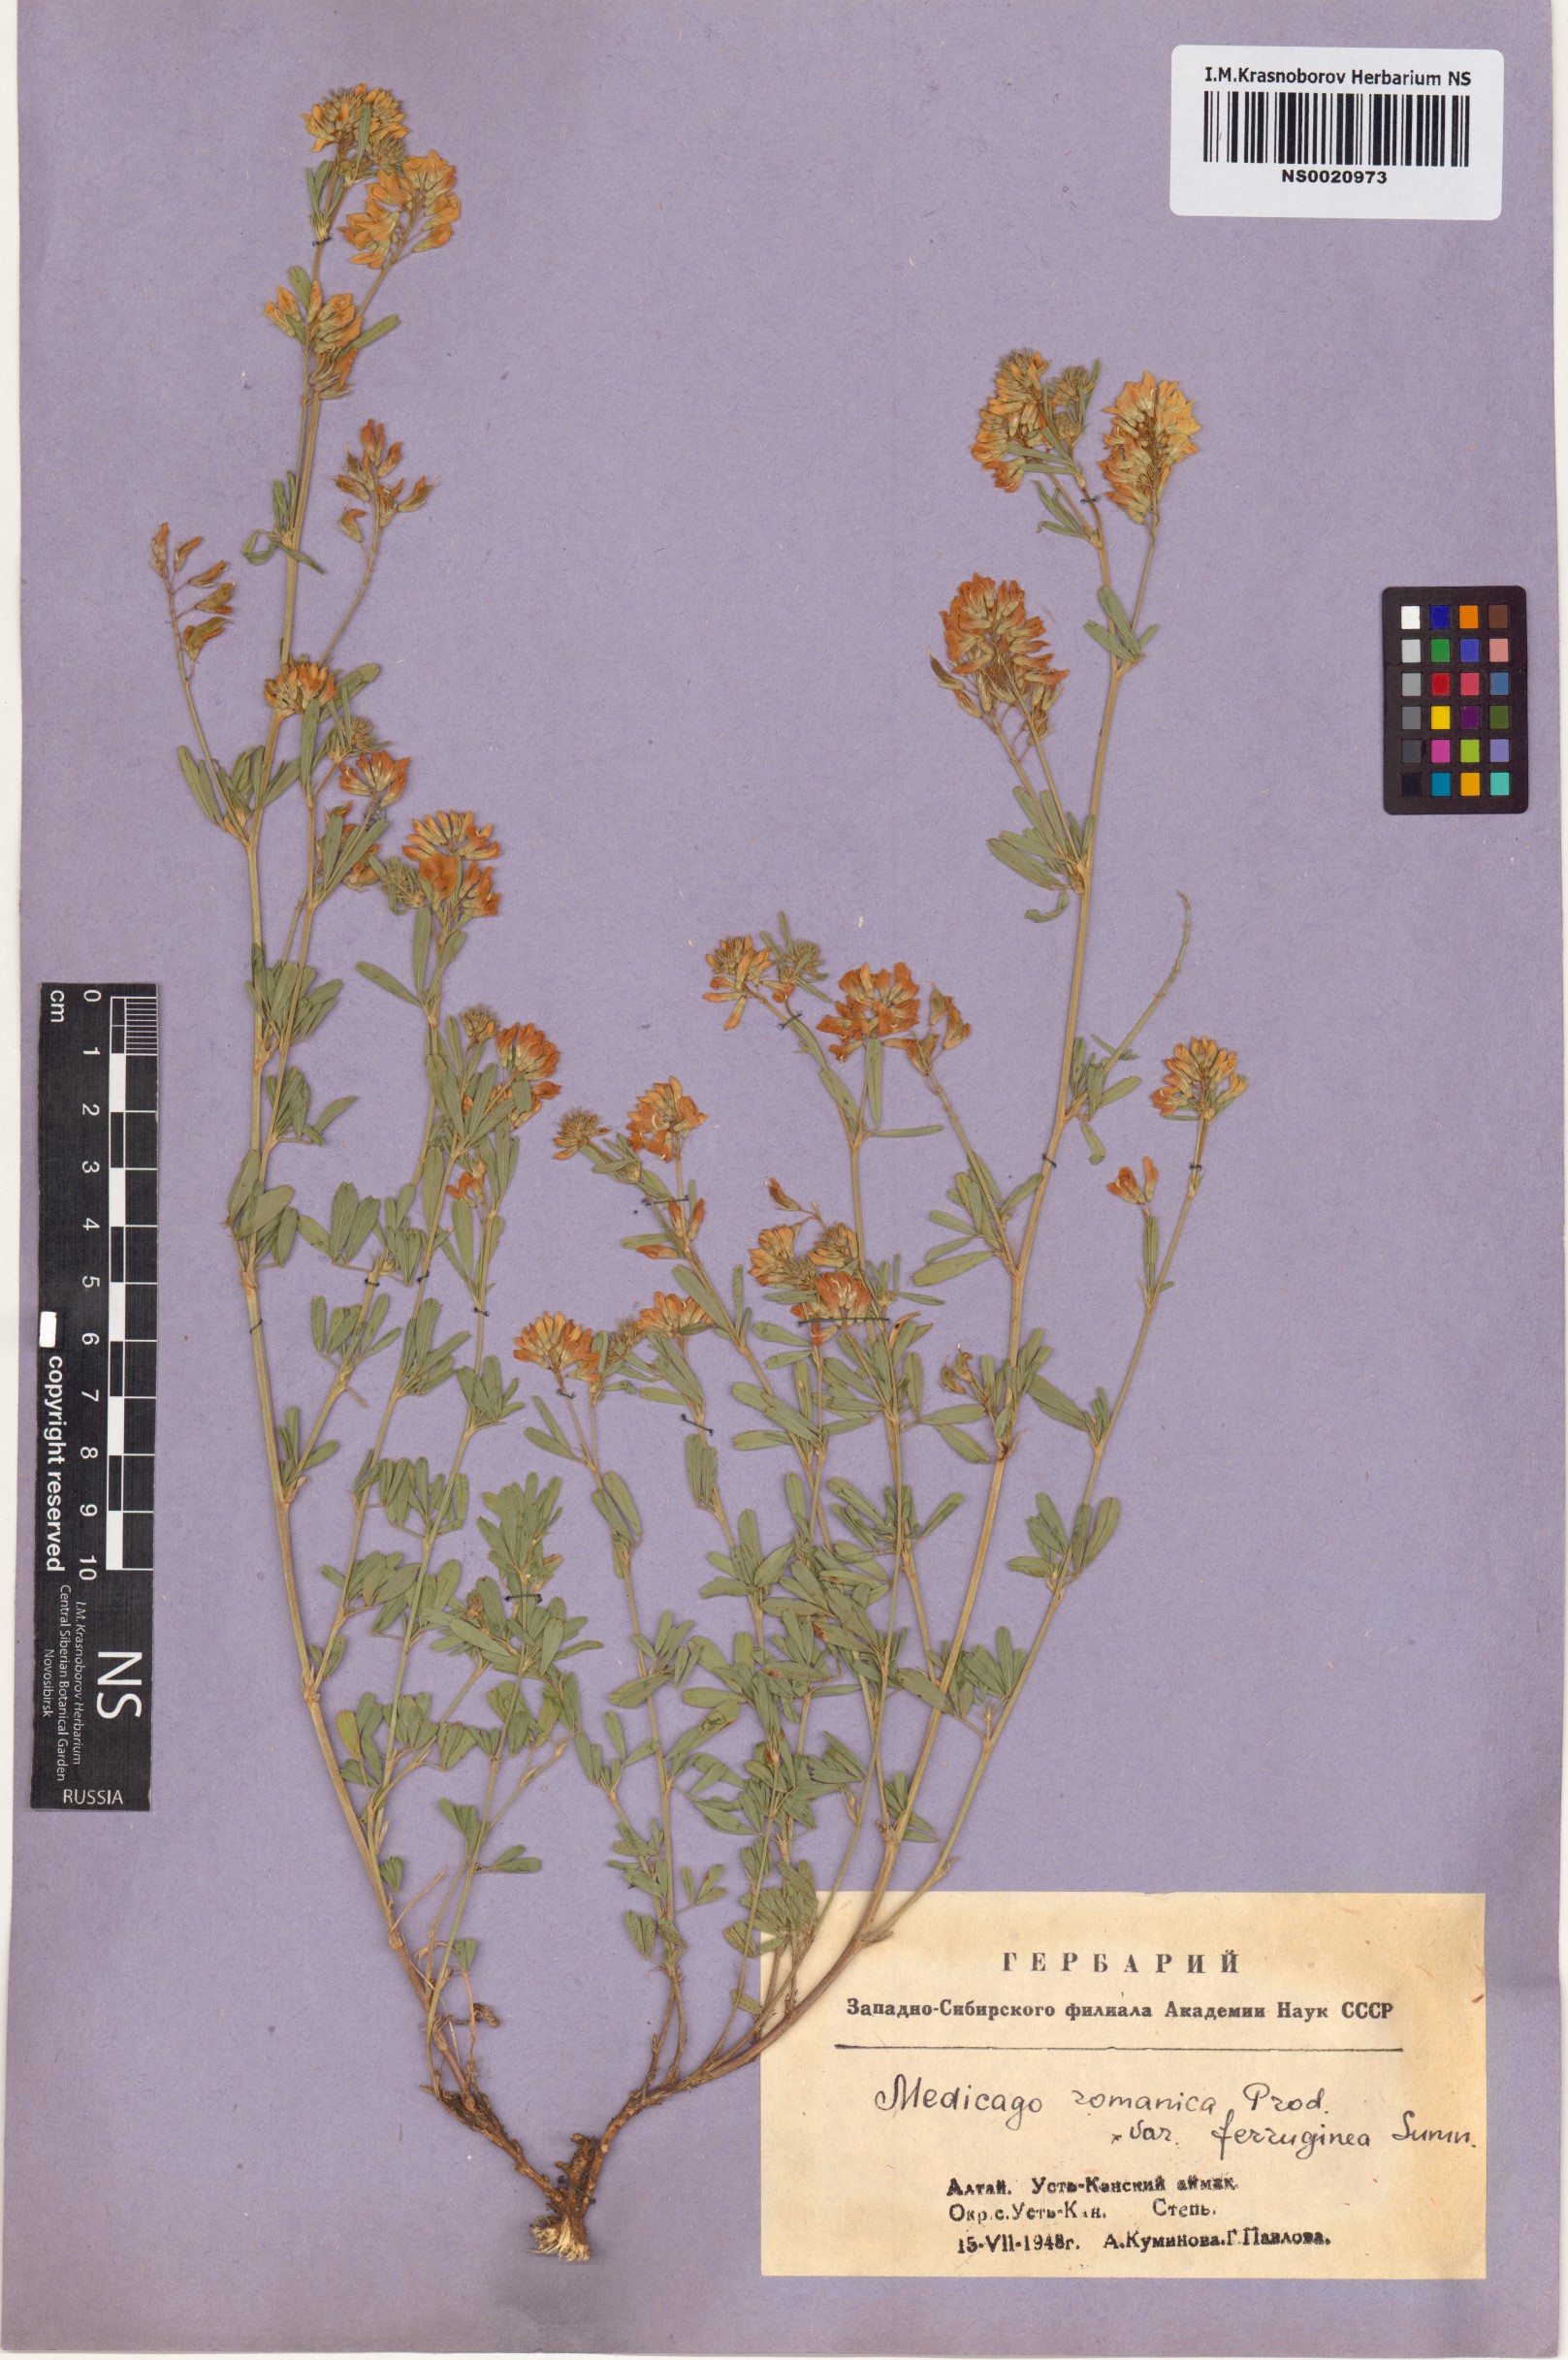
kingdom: Plantae
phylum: Tracheophyta
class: Magnoliopsida
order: Fabales
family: Fabaceae
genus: Medicago
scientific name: Medicago falcata
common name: Sickle medick
